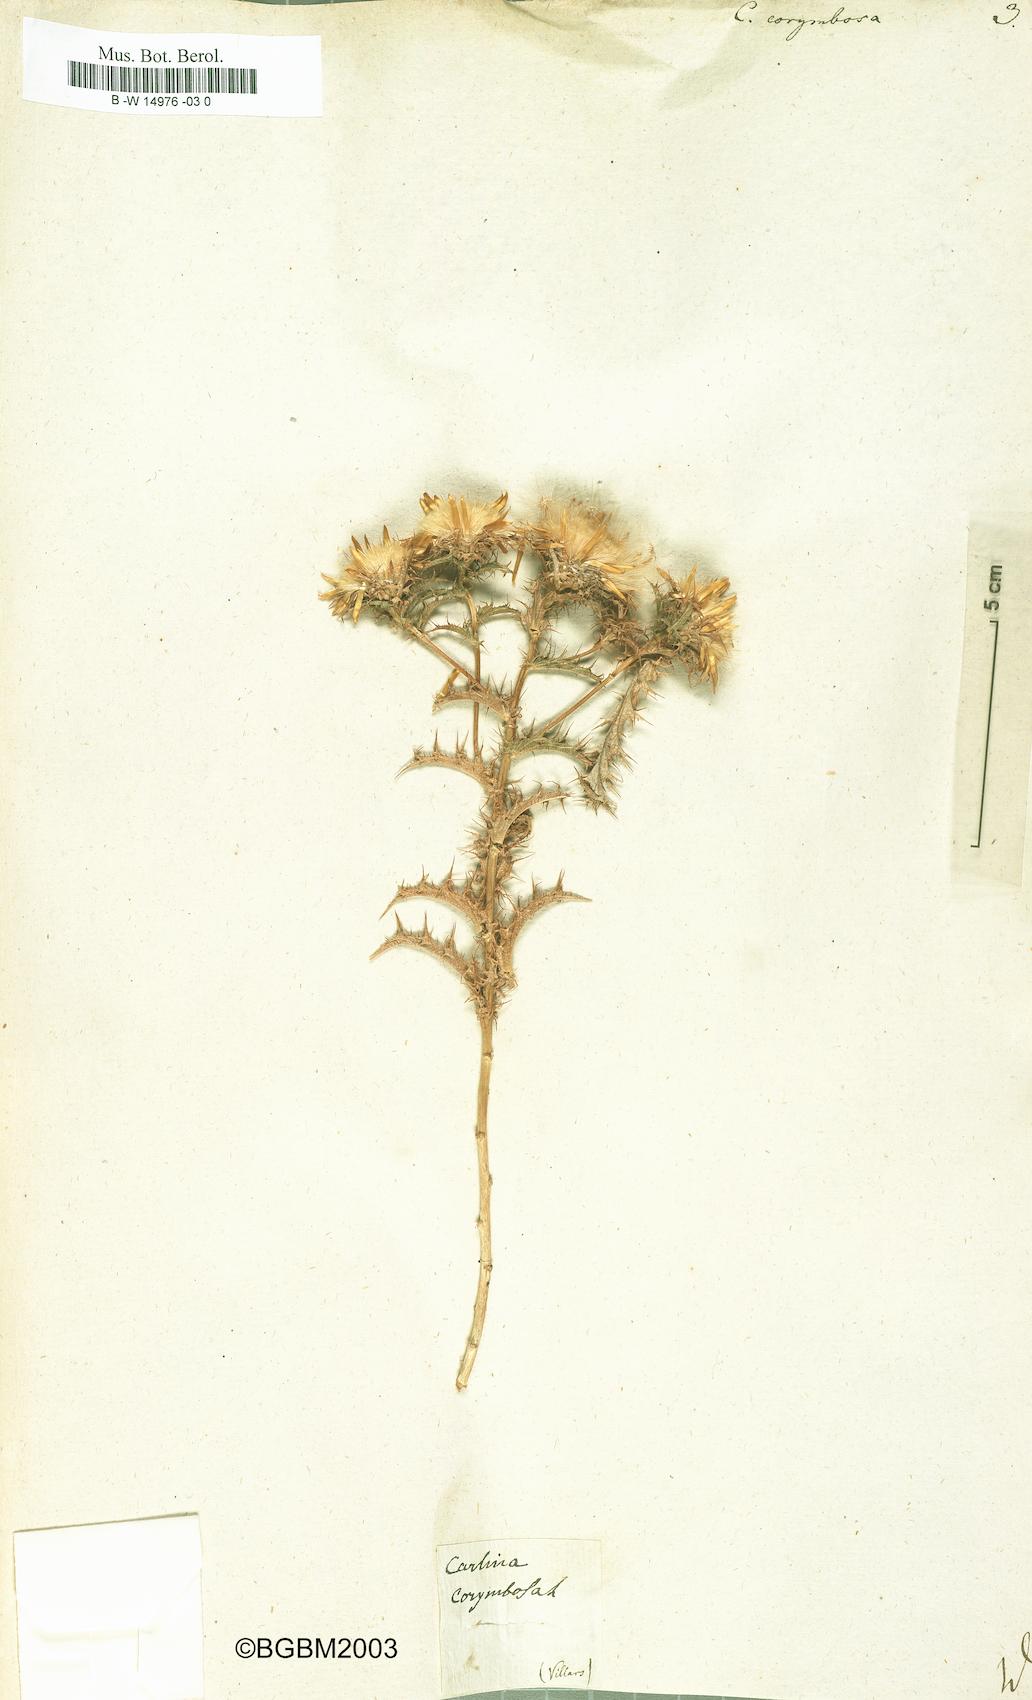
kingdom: Plantae
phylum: Tracheophyta
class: Magnoliopsida
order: Asterales
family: Asteraceae
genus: Carlina
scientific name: Carlina corymbosa
